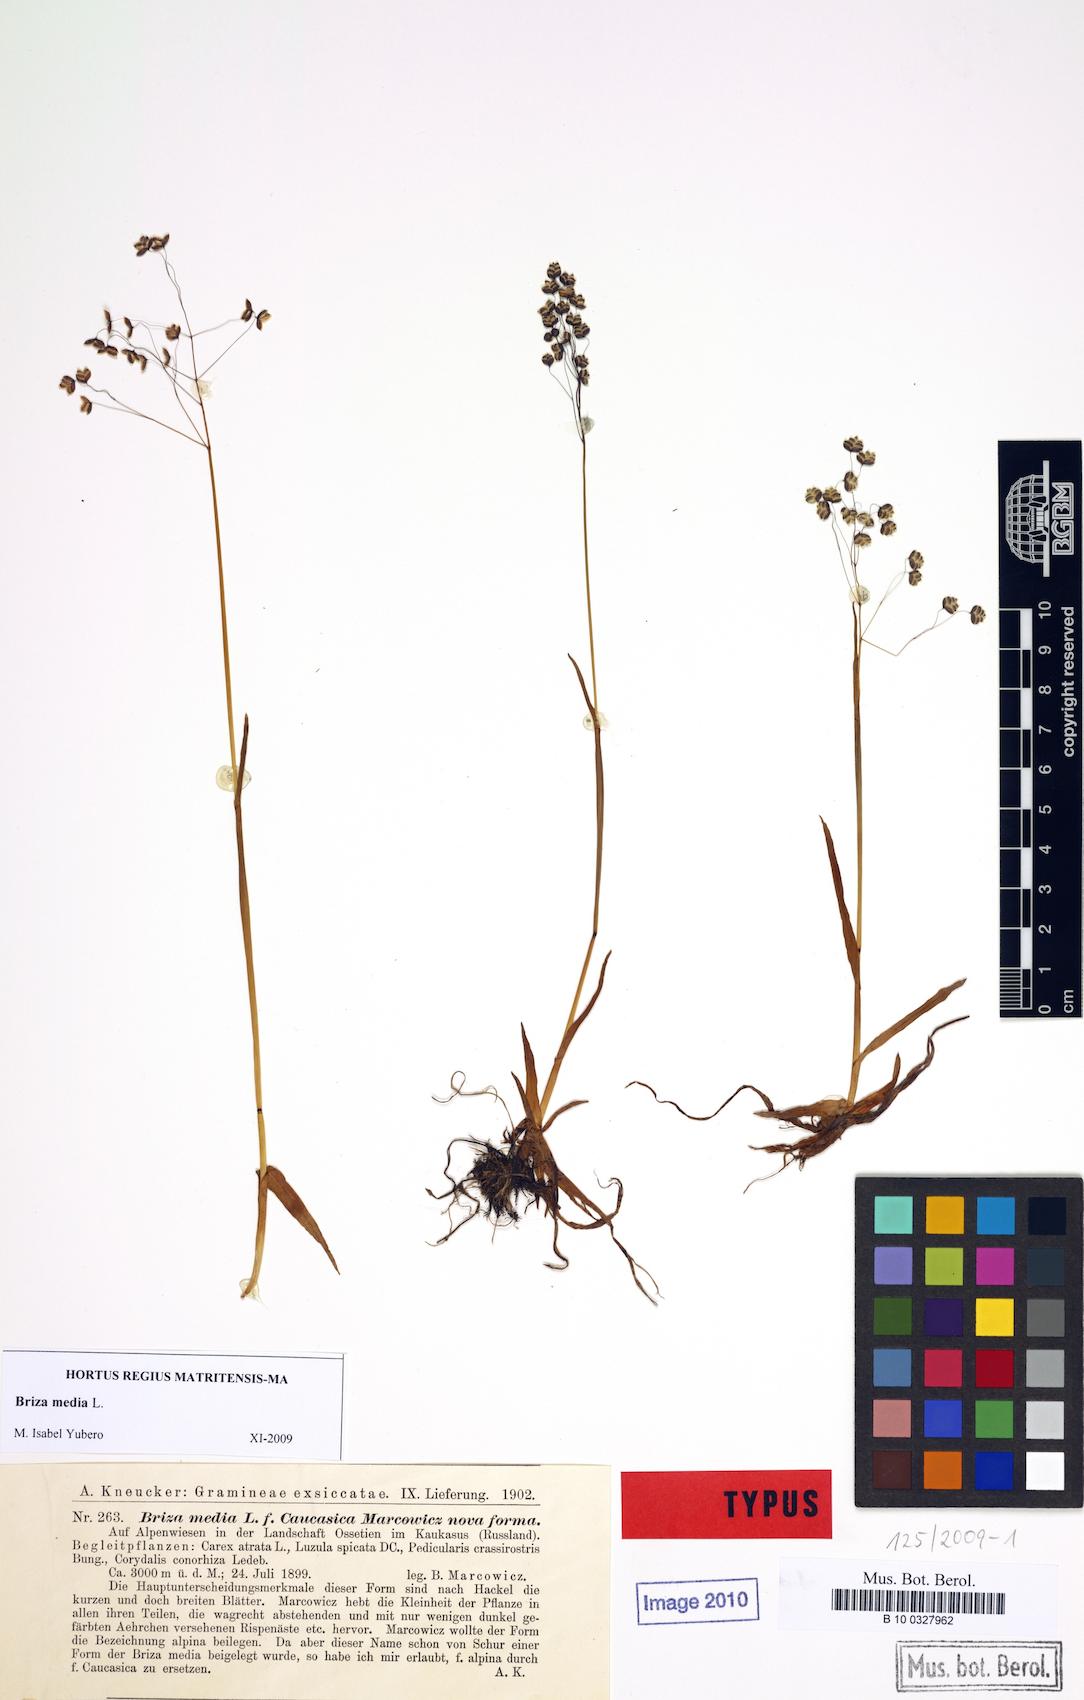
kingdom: Plantae
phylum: Tracheophyta
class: Liliopsida
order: Poales
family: Poaceae
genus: Briza
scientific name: Briza media
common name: Quaking grass
